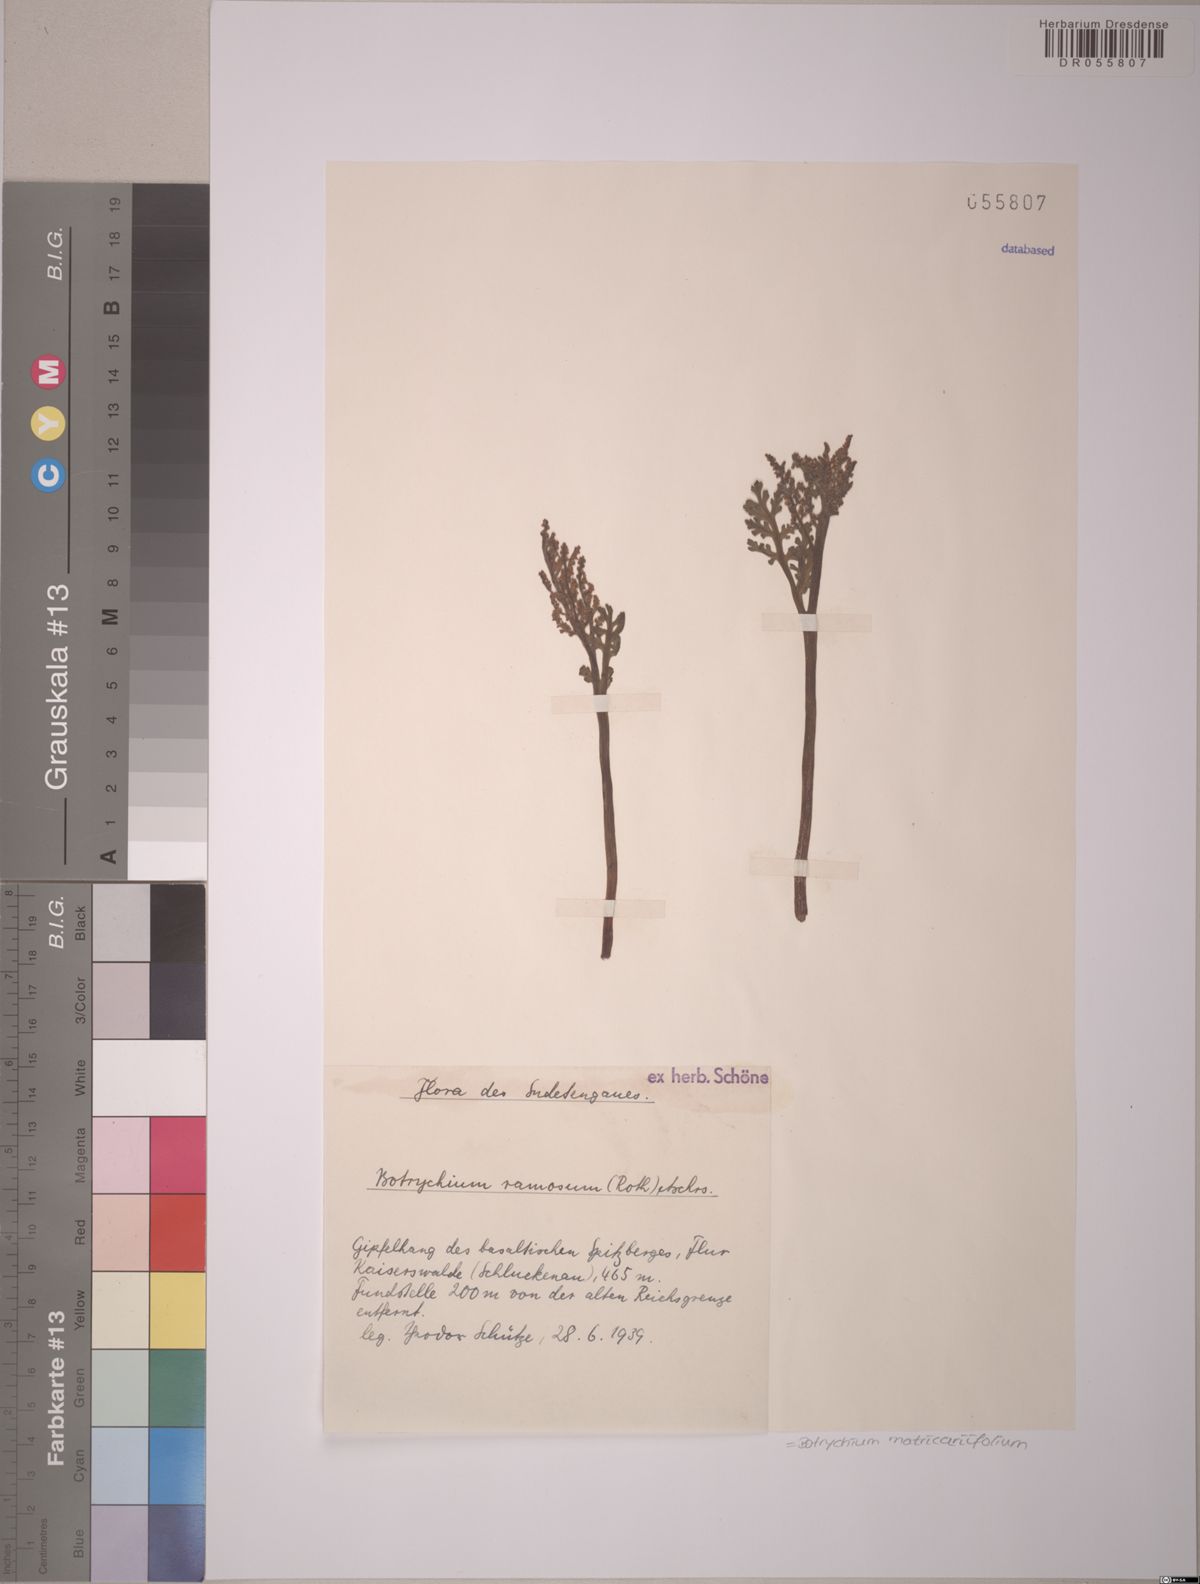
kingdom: Plantae
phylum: Tracheophyta
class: Polypodiopsida
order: Ophioglossales
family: Ophioglossaceae
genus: Botrychium
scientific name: Botrychium matricariifolium
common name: Branched moonwort
